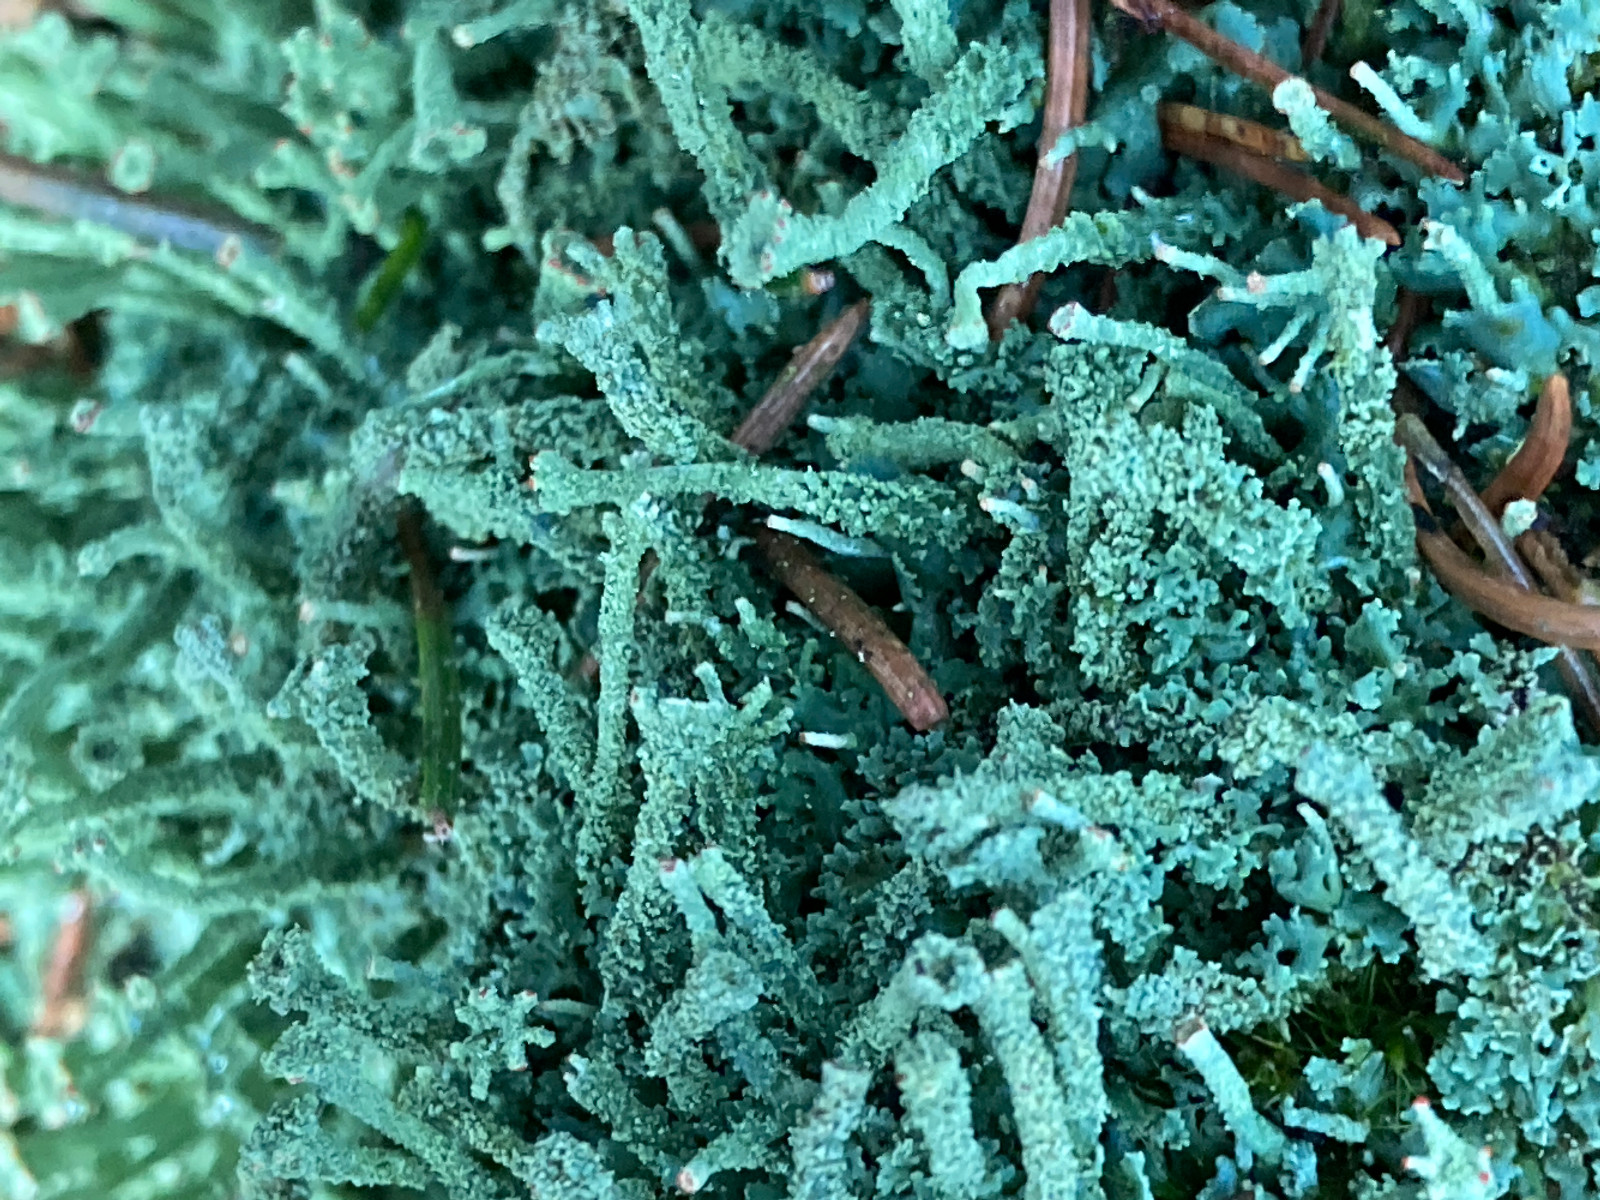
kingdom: Fungi
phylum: Ascomycota
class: Lecanoromycetes
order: Lecanorales
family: Cladoniaceae
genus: Cladonia
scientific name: Cladonia
